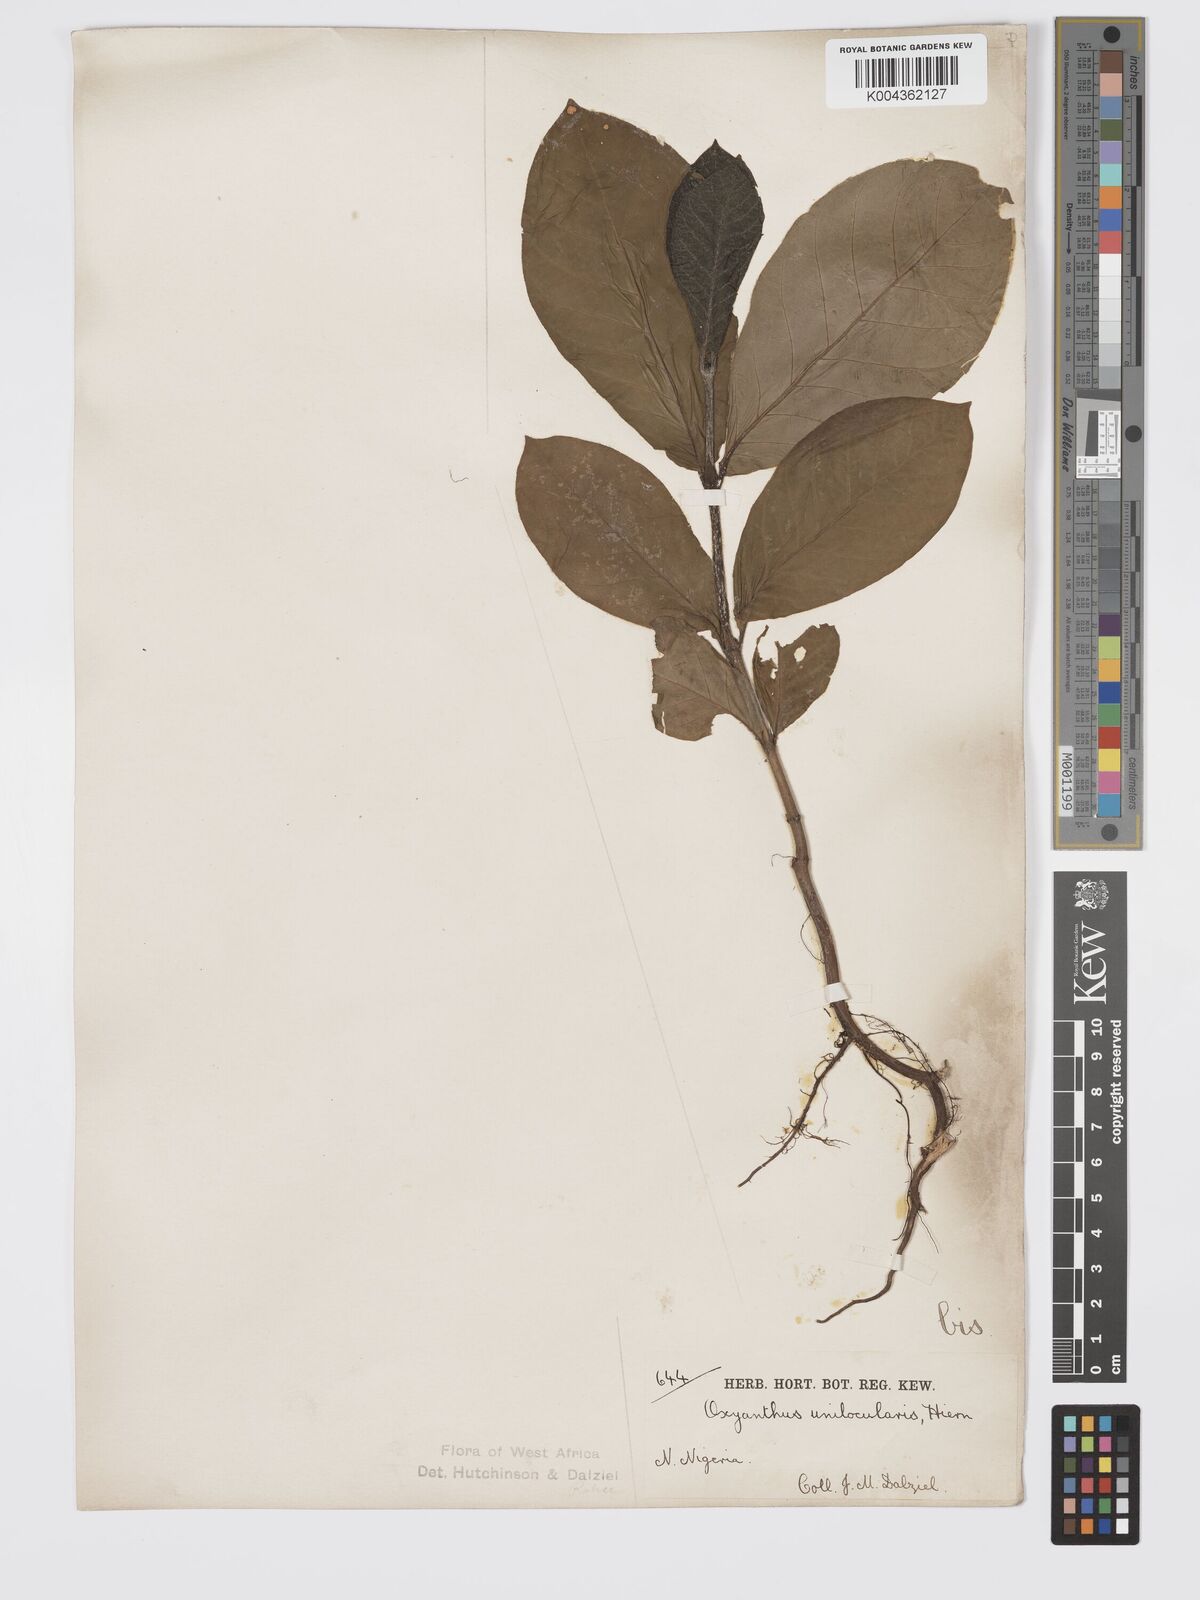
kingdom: Plantae
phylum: Tracheophyta
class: Magnoliopsida
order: Gentianales
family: Rubiaceae
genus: Oxyanthus
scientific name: Oxyanthus unilocularis
